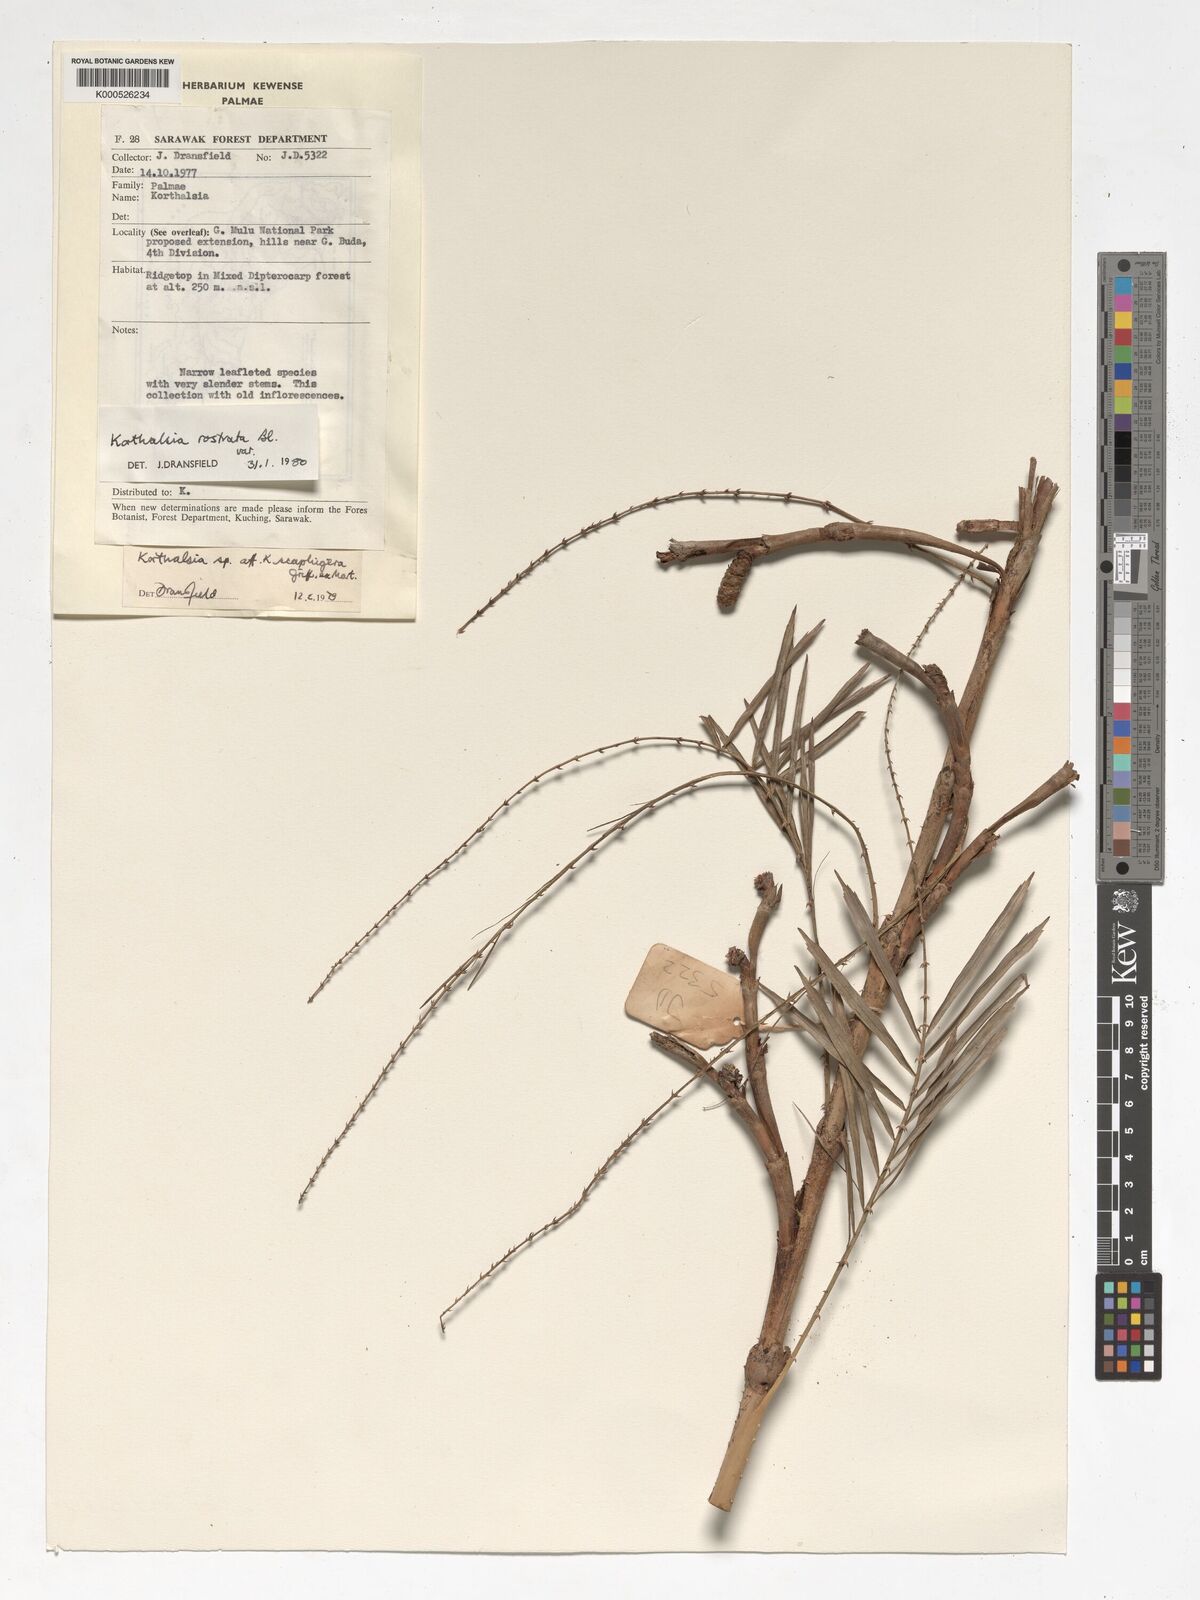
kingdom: Plantae
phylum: Tracheophyta
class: Liliopsida
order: Arecales
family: Arecaceae
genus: Korthalsia
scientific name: Korthalsia rostrata
